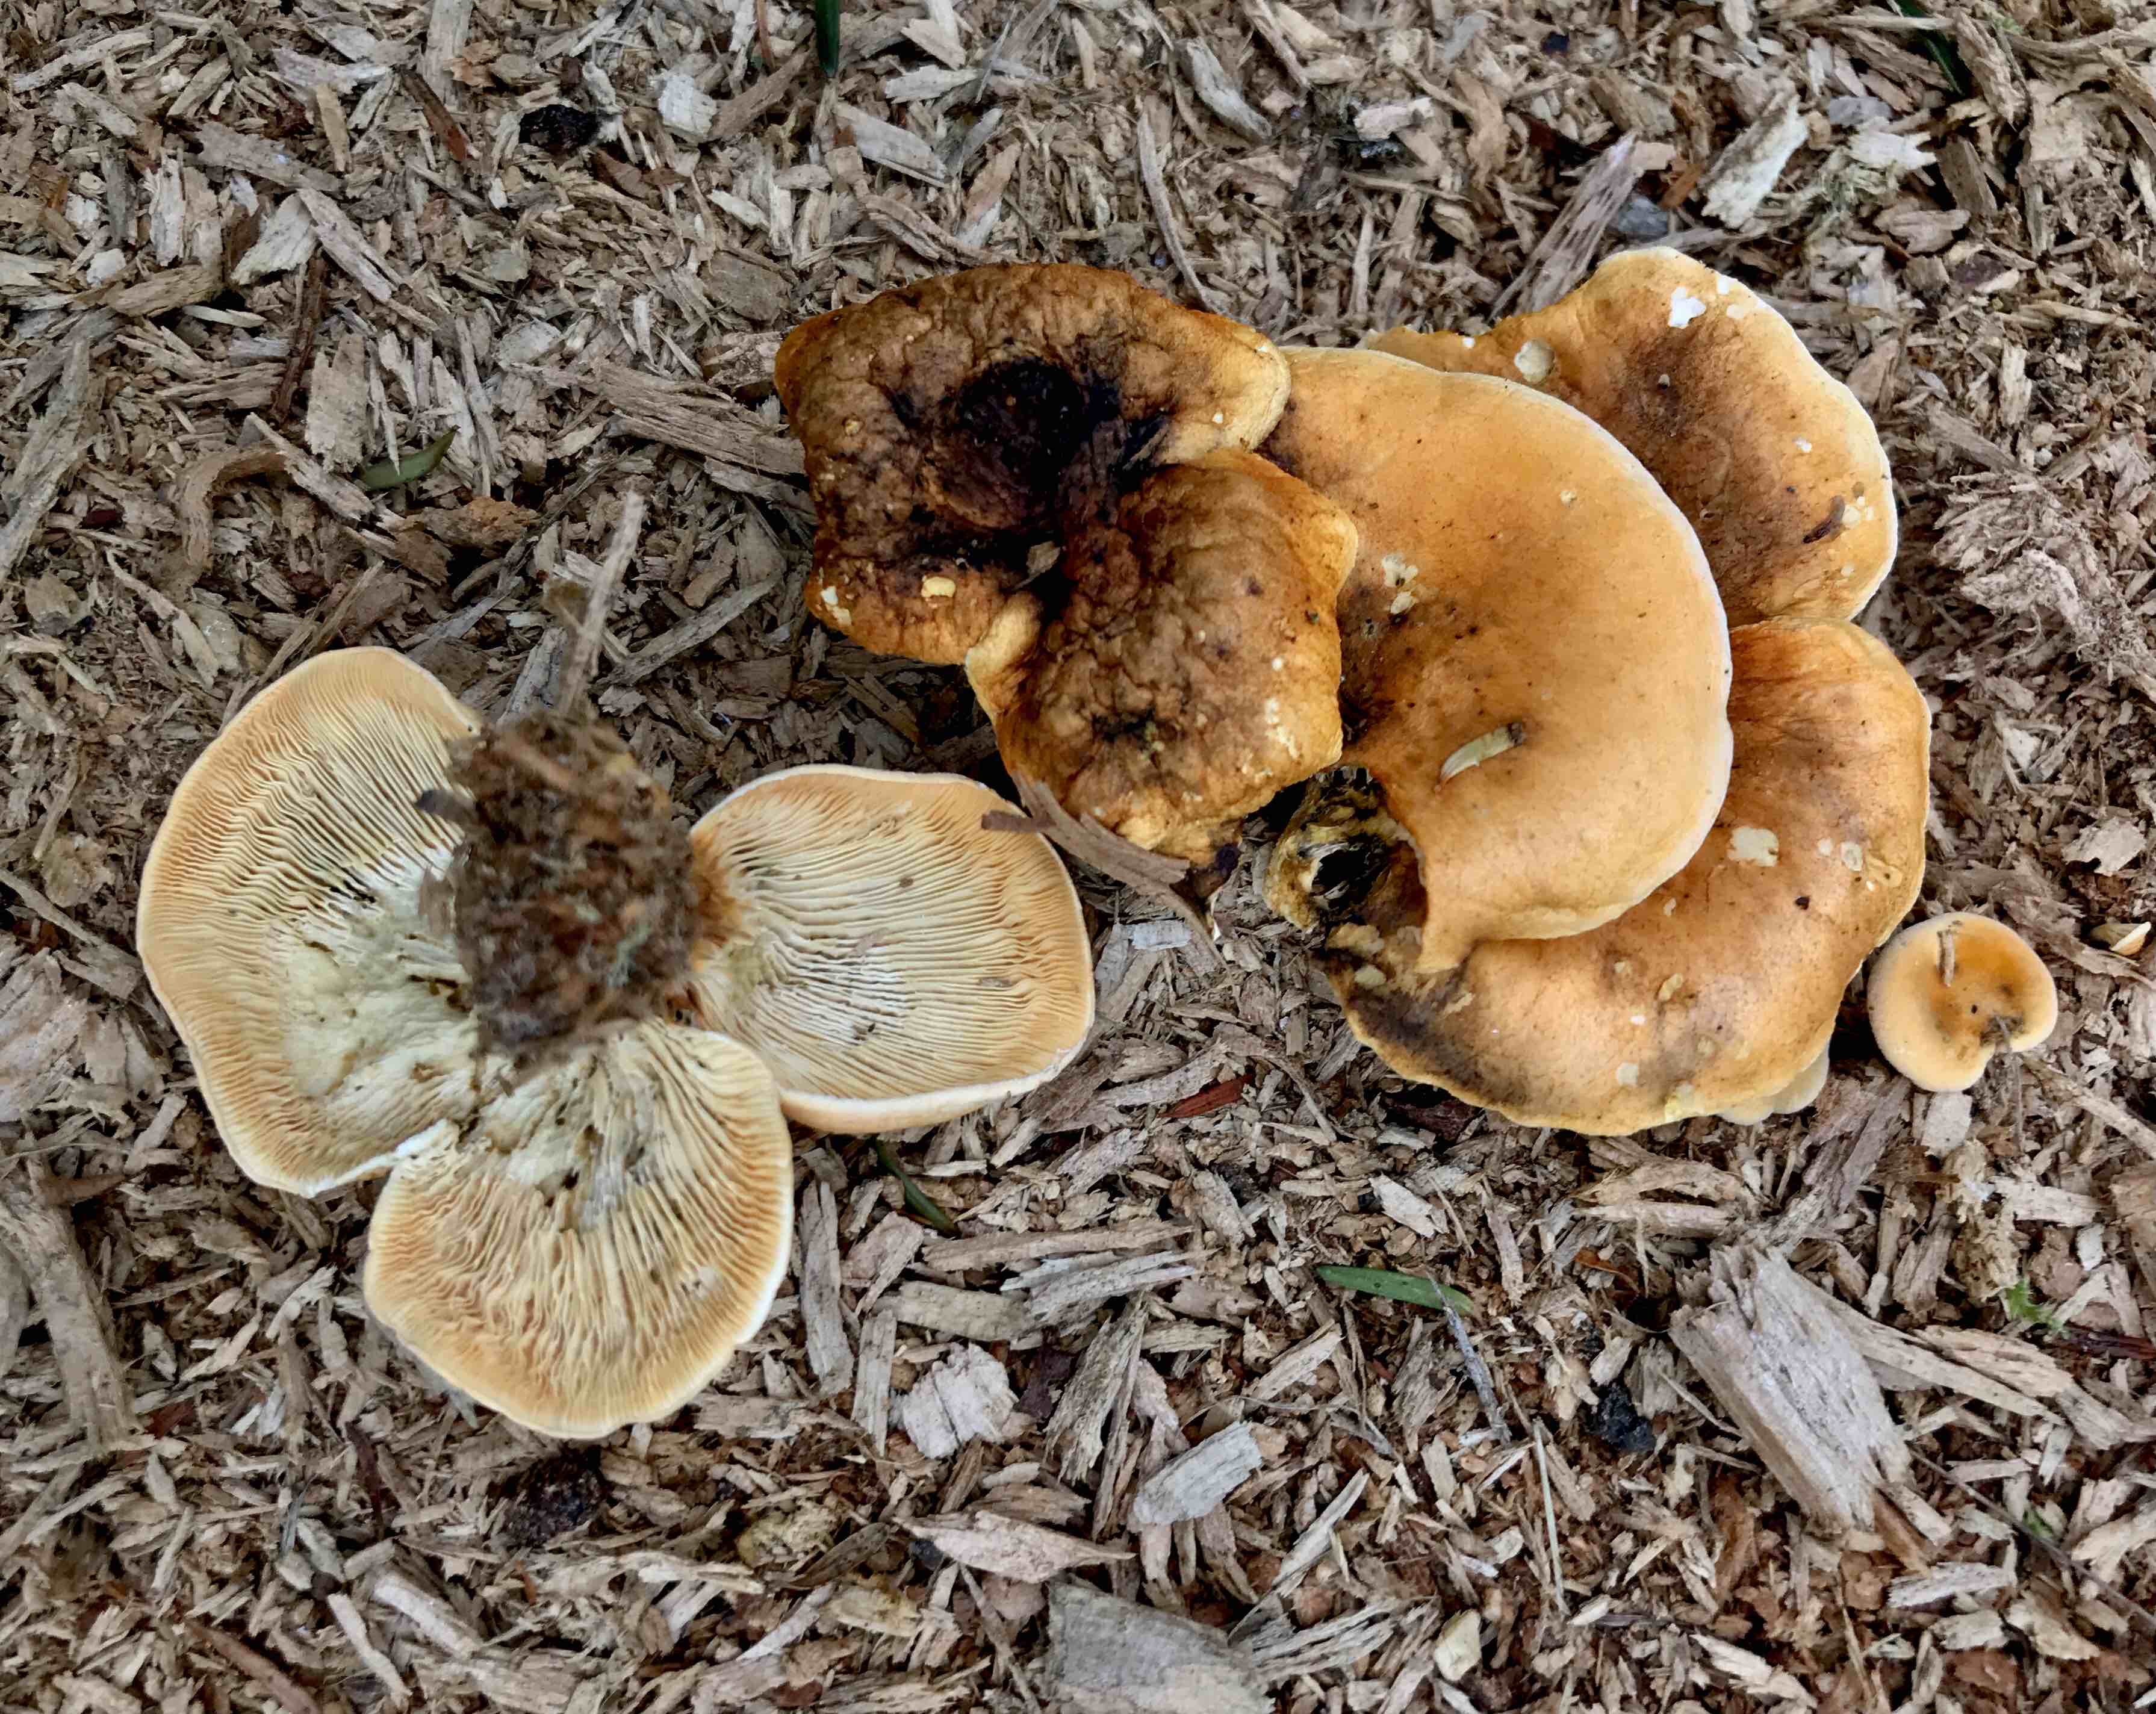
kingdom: Fungi
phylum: Basidiomycota
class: Agaricomycetes
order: Boletales
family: Hygrophoropsidaceae
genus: Hygrophoropsis
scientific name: Hygrophoropsis aurantiaca
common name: almindelig orangekantarel
